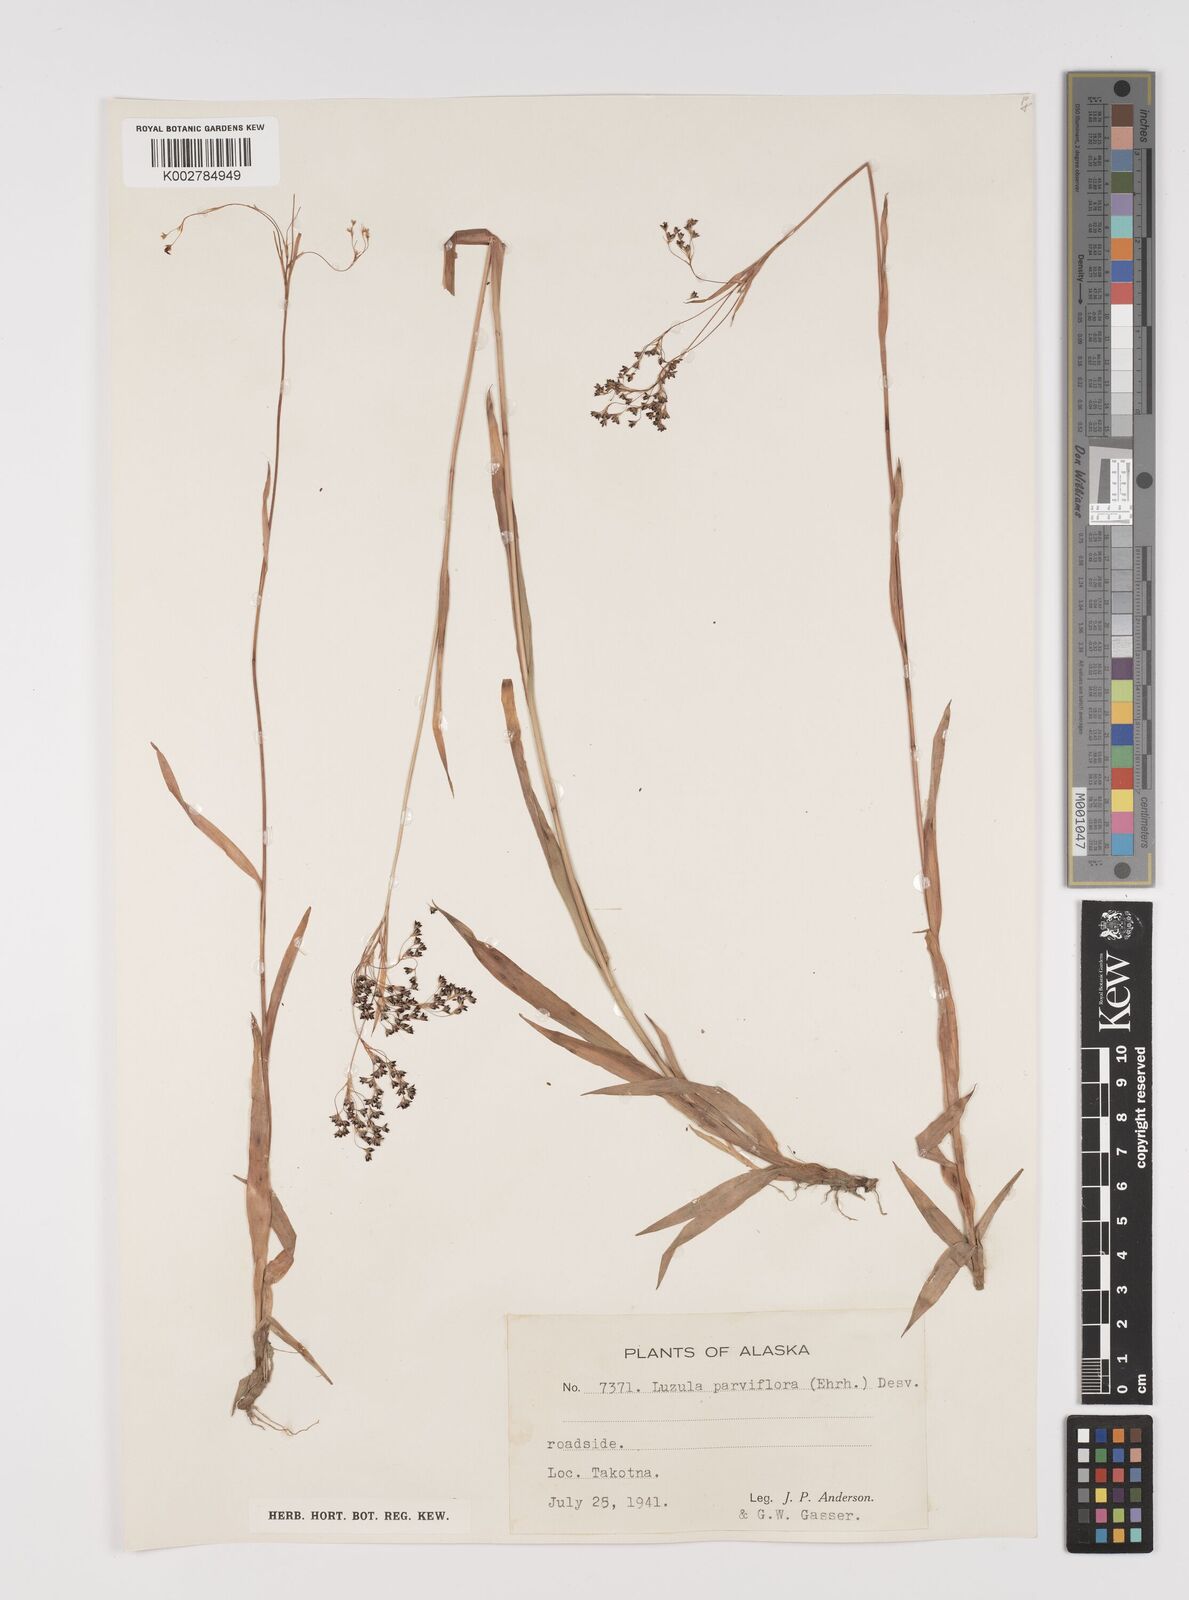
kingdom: Plantae
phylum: Tracheophyta
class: Liliopsida
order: Poales
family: Juncaceae
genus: Luzula
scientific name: Luzula parviflora
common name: Millet woodrush
